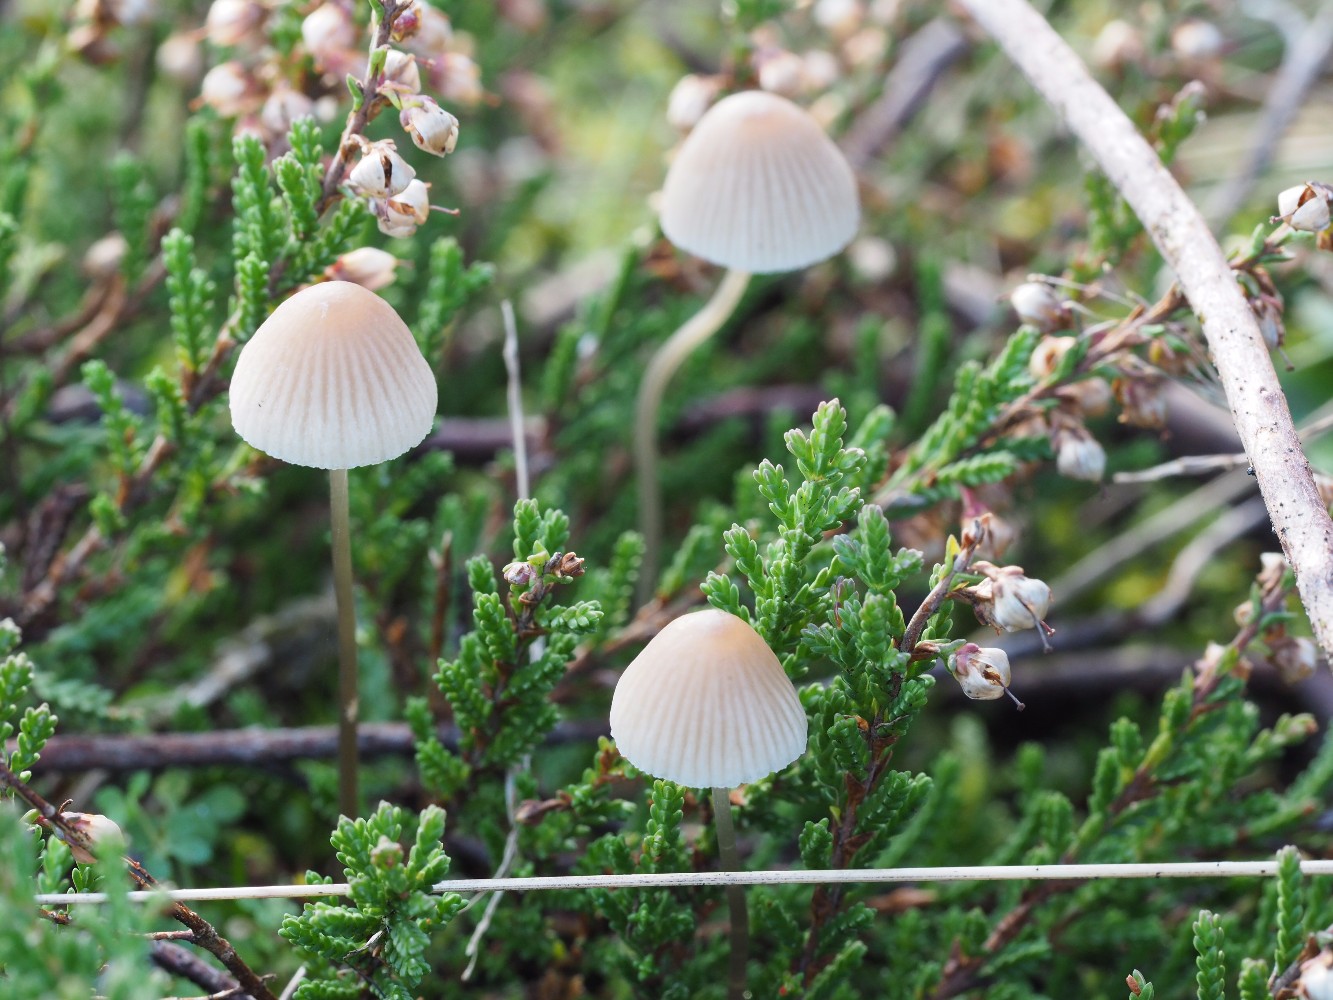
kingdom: Fungi
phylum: Basidiomycota
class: Agaricomycetes
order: Agaricales
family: Mycenaceae
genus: Mycena
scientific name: Mycena metata
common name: rødlig huesvamp
